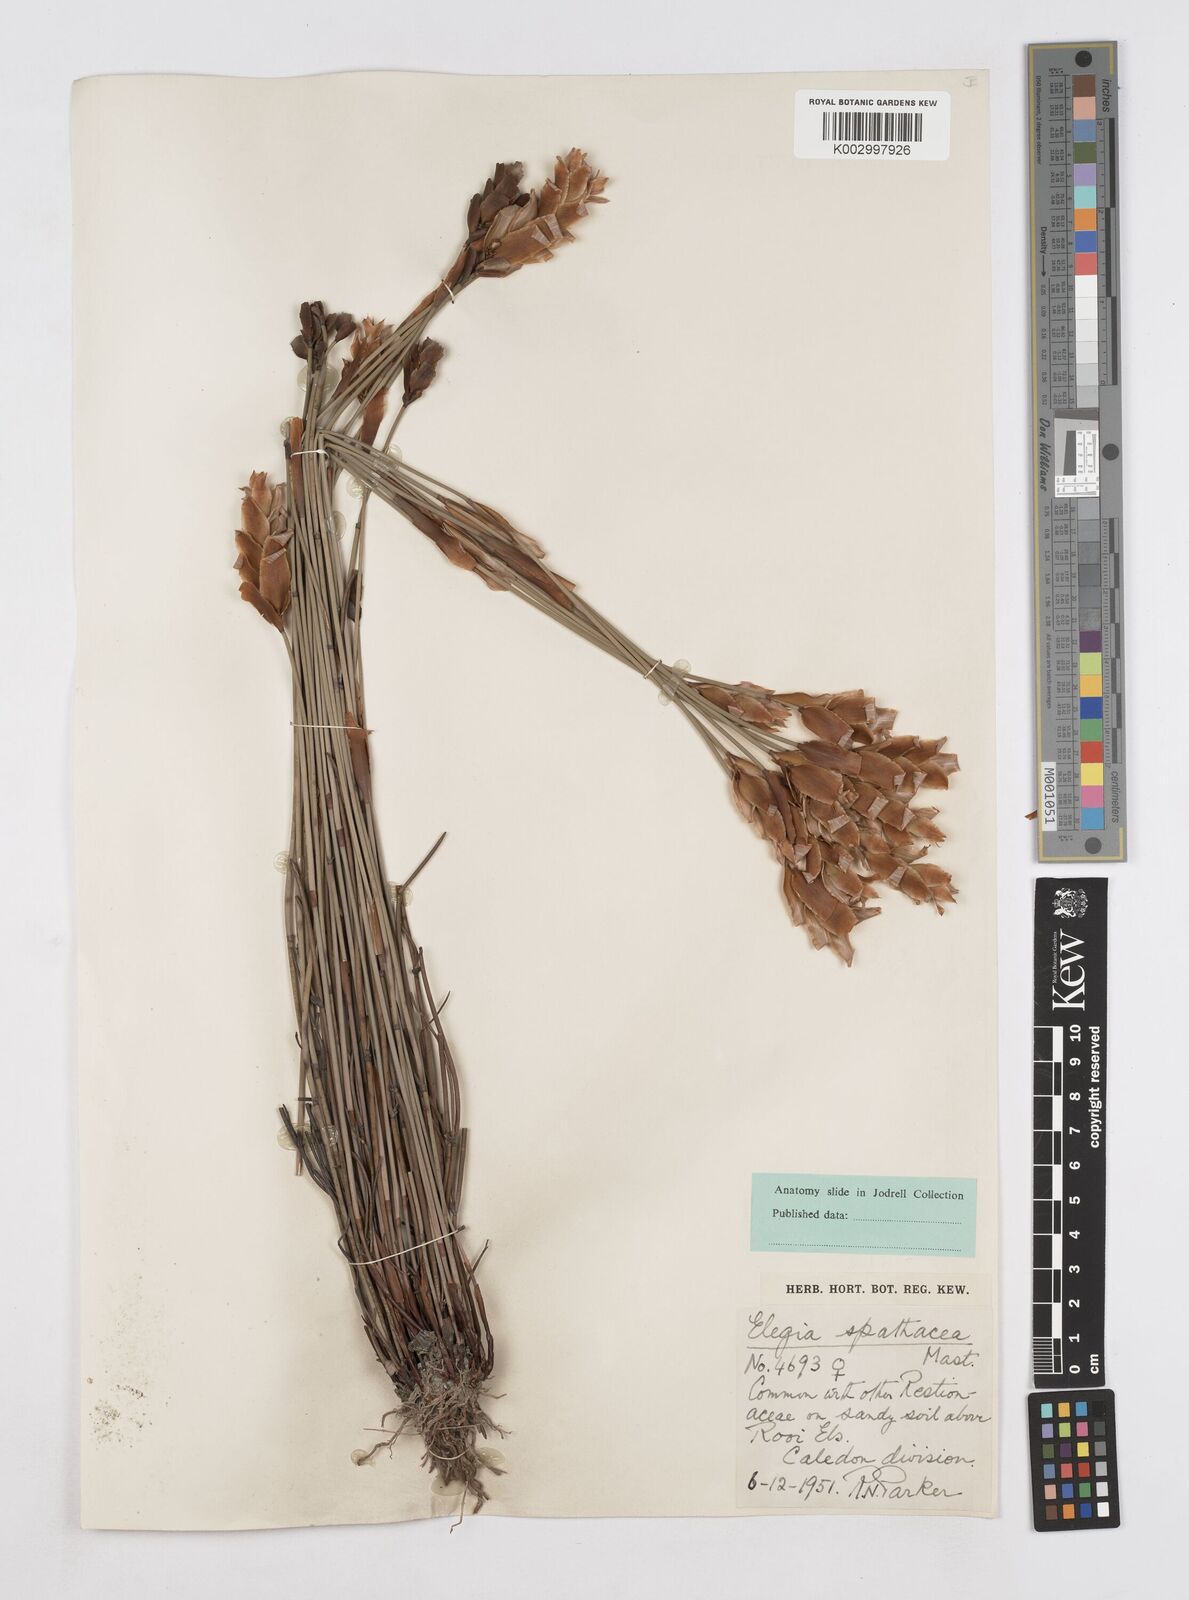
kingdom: Plantae
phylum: Tracheophyta
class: Liliopsida
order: Poales
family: Restionaceae
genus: Elegia
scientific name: Elegia spathacea
